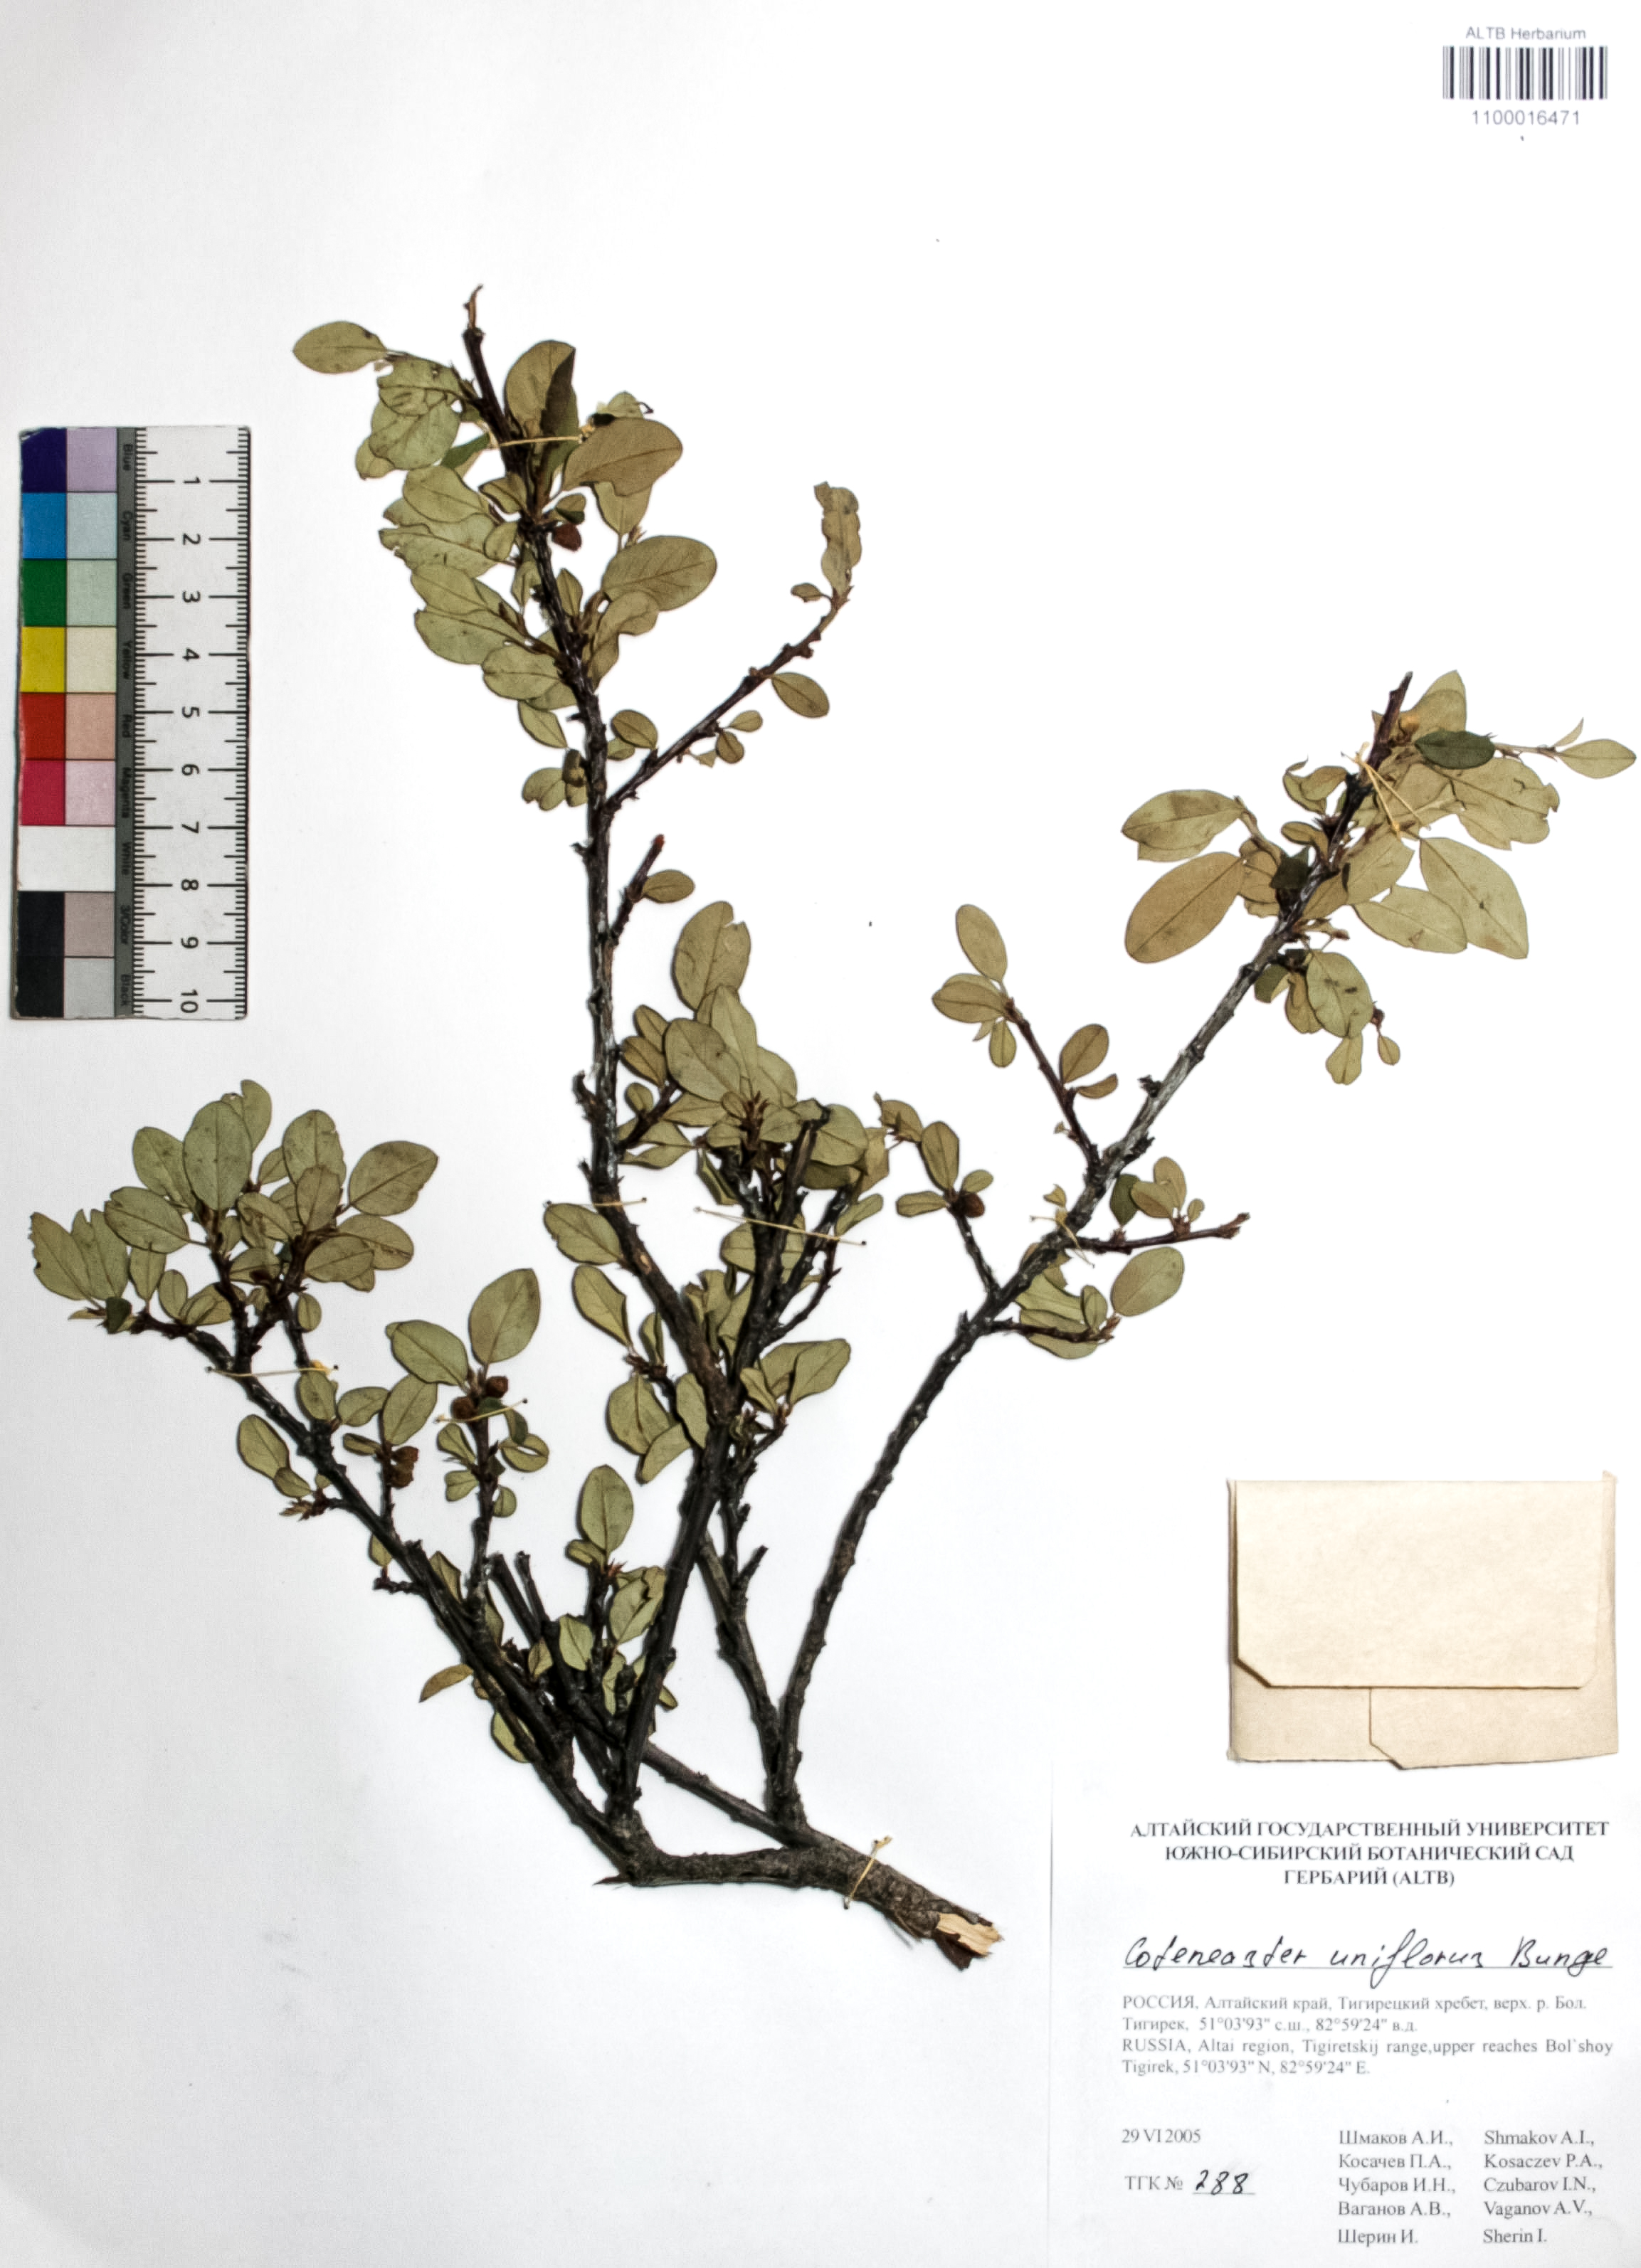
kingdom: Plantae
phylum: Tracheophyta
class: Magnoliopsida
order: Rosales
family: Rosaceae
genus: Cotoneaster
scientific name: Cotoneaster uniflorus
